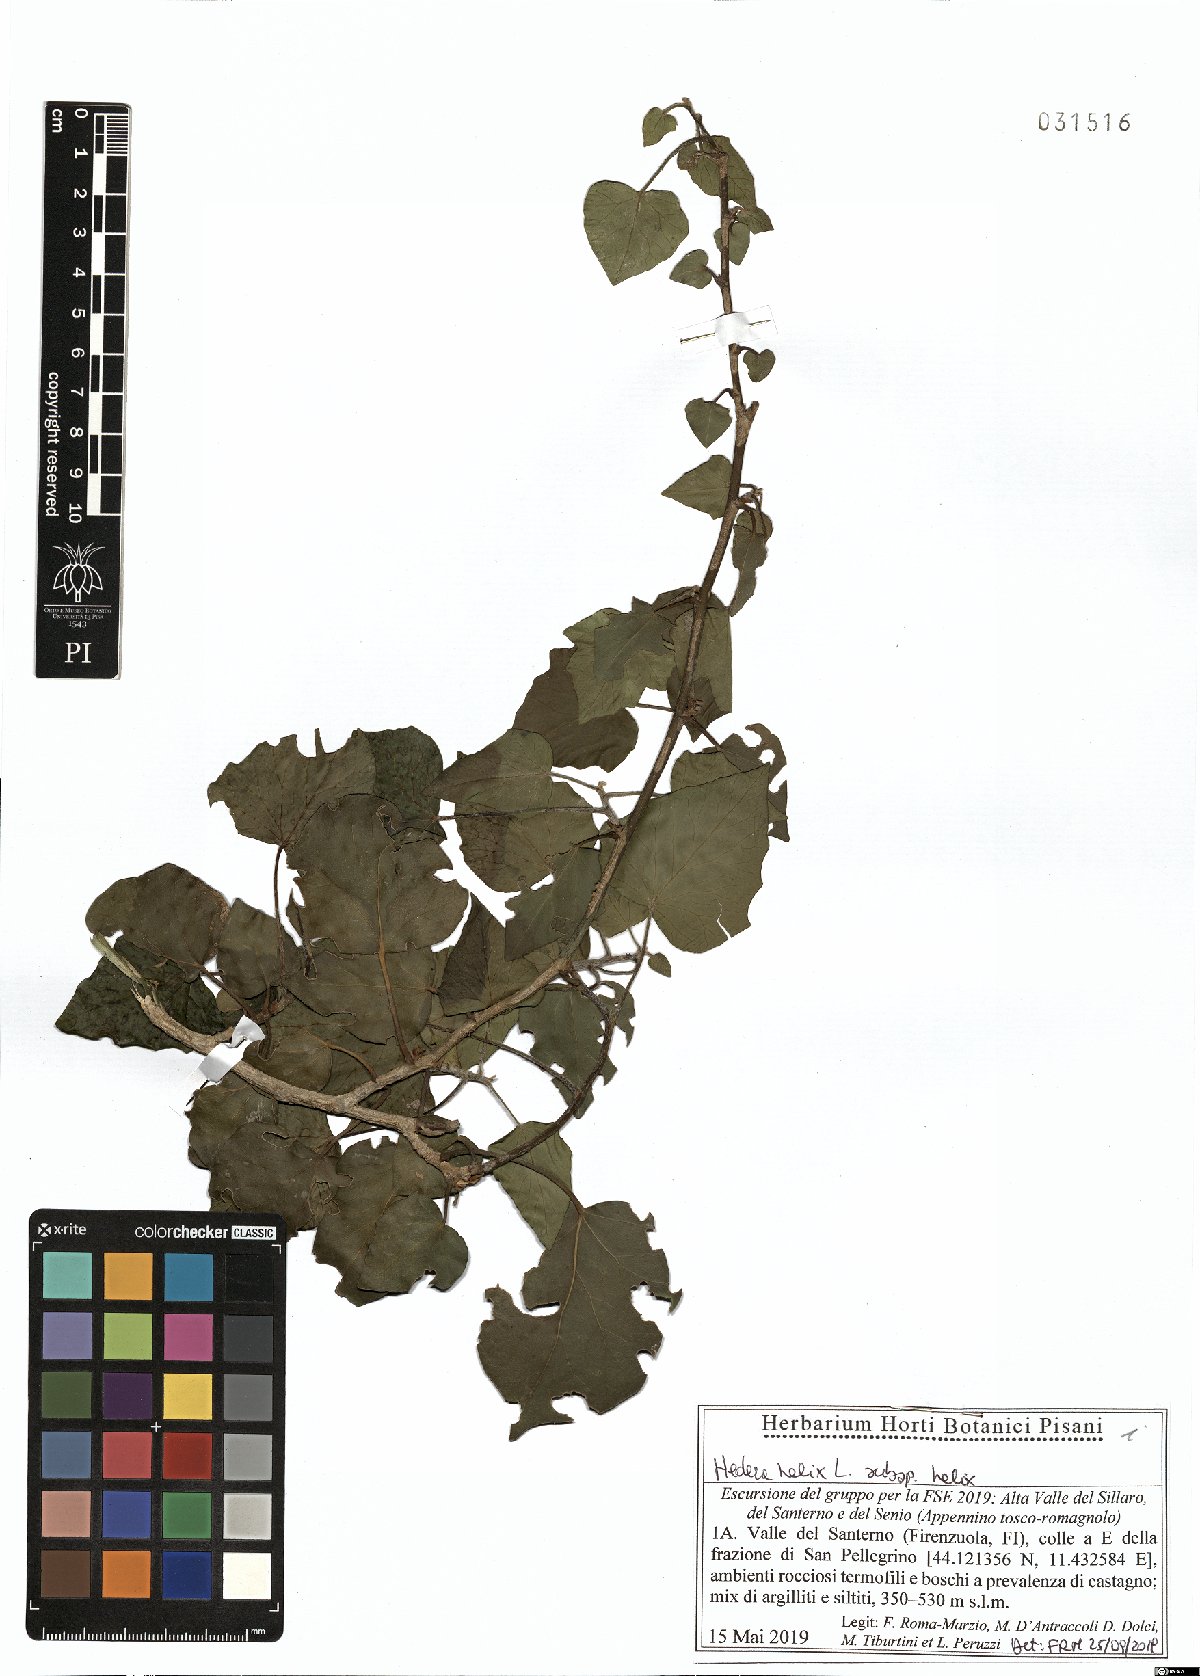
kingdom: Plantae
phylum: Tracheophyta
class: Magnoliopsida
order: Apiales
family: Araliaceae
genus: Hedera
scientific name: Hedera helix
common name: Ivy
